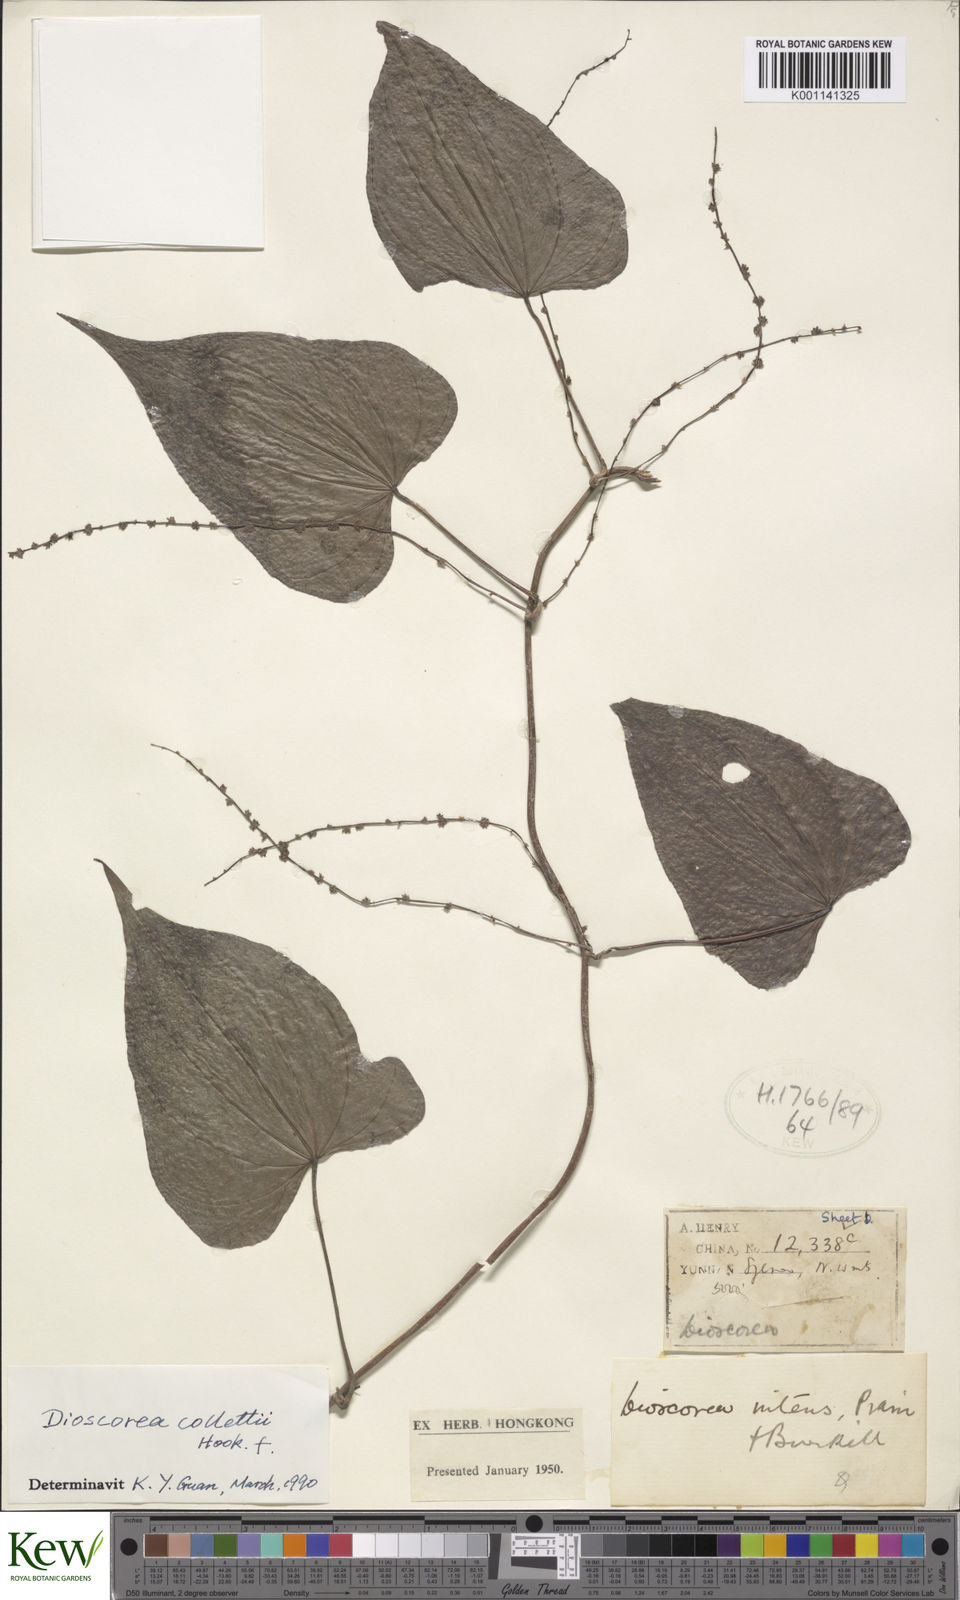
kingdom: Plantae
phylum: Tracheophyta
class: Liliopsida
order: Dioscoreales
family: Dioscoreaceae
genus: Dioscorea
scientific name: Dioscorea collettii
